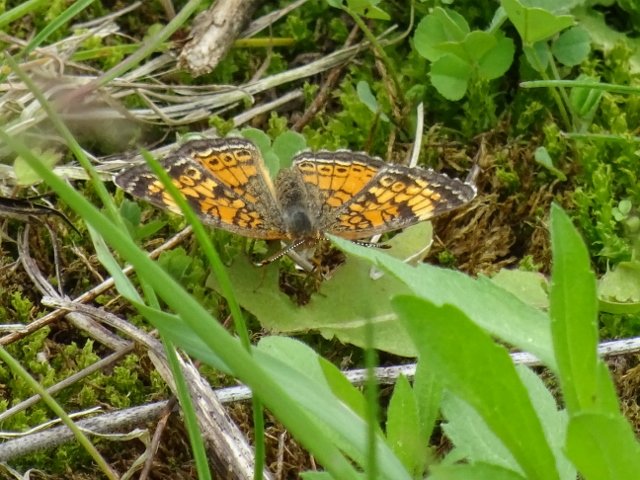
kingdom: Animalia
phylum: Arthropoda
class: Insecta
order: Lepidoptera
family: Nymphalidae
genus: Phyciodes
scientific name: Phyciodes tharos
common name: Pearl Crescent
